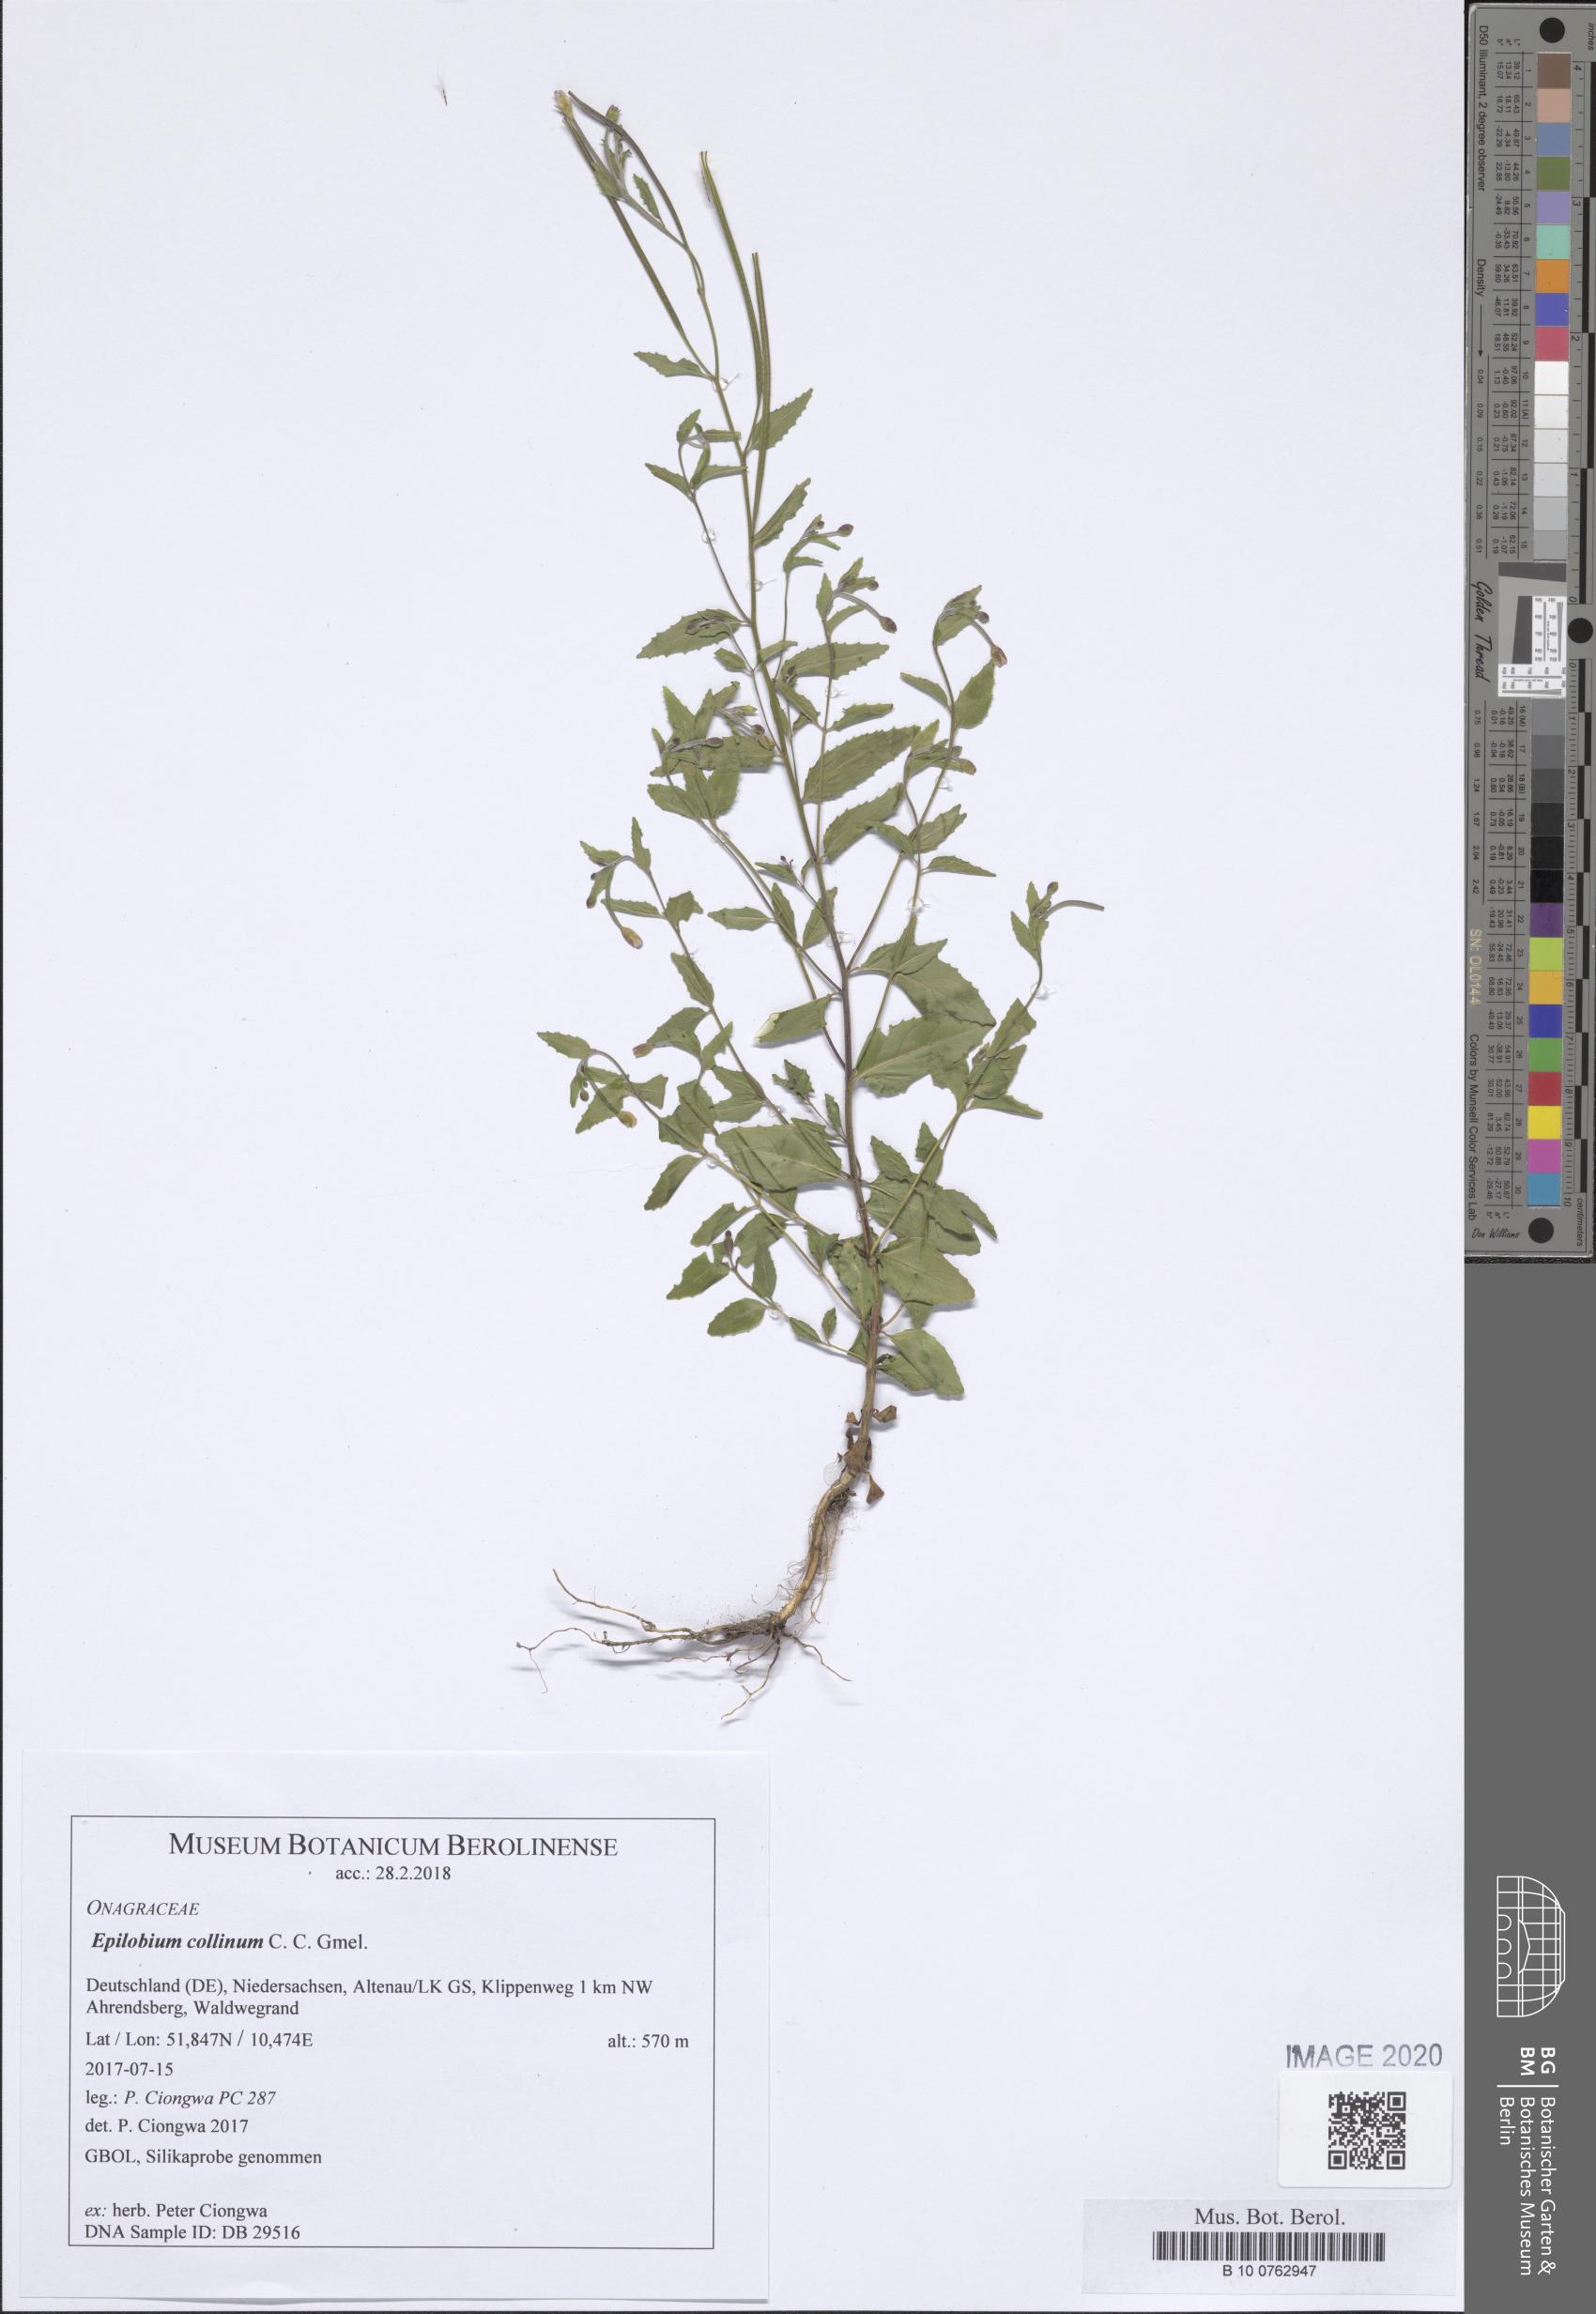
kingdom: Plantae
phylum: Tracheophyta
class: Magnoliopsida
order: Myrtales
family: Onagraceae
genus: Epilobium
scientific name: Epilobium collinum
